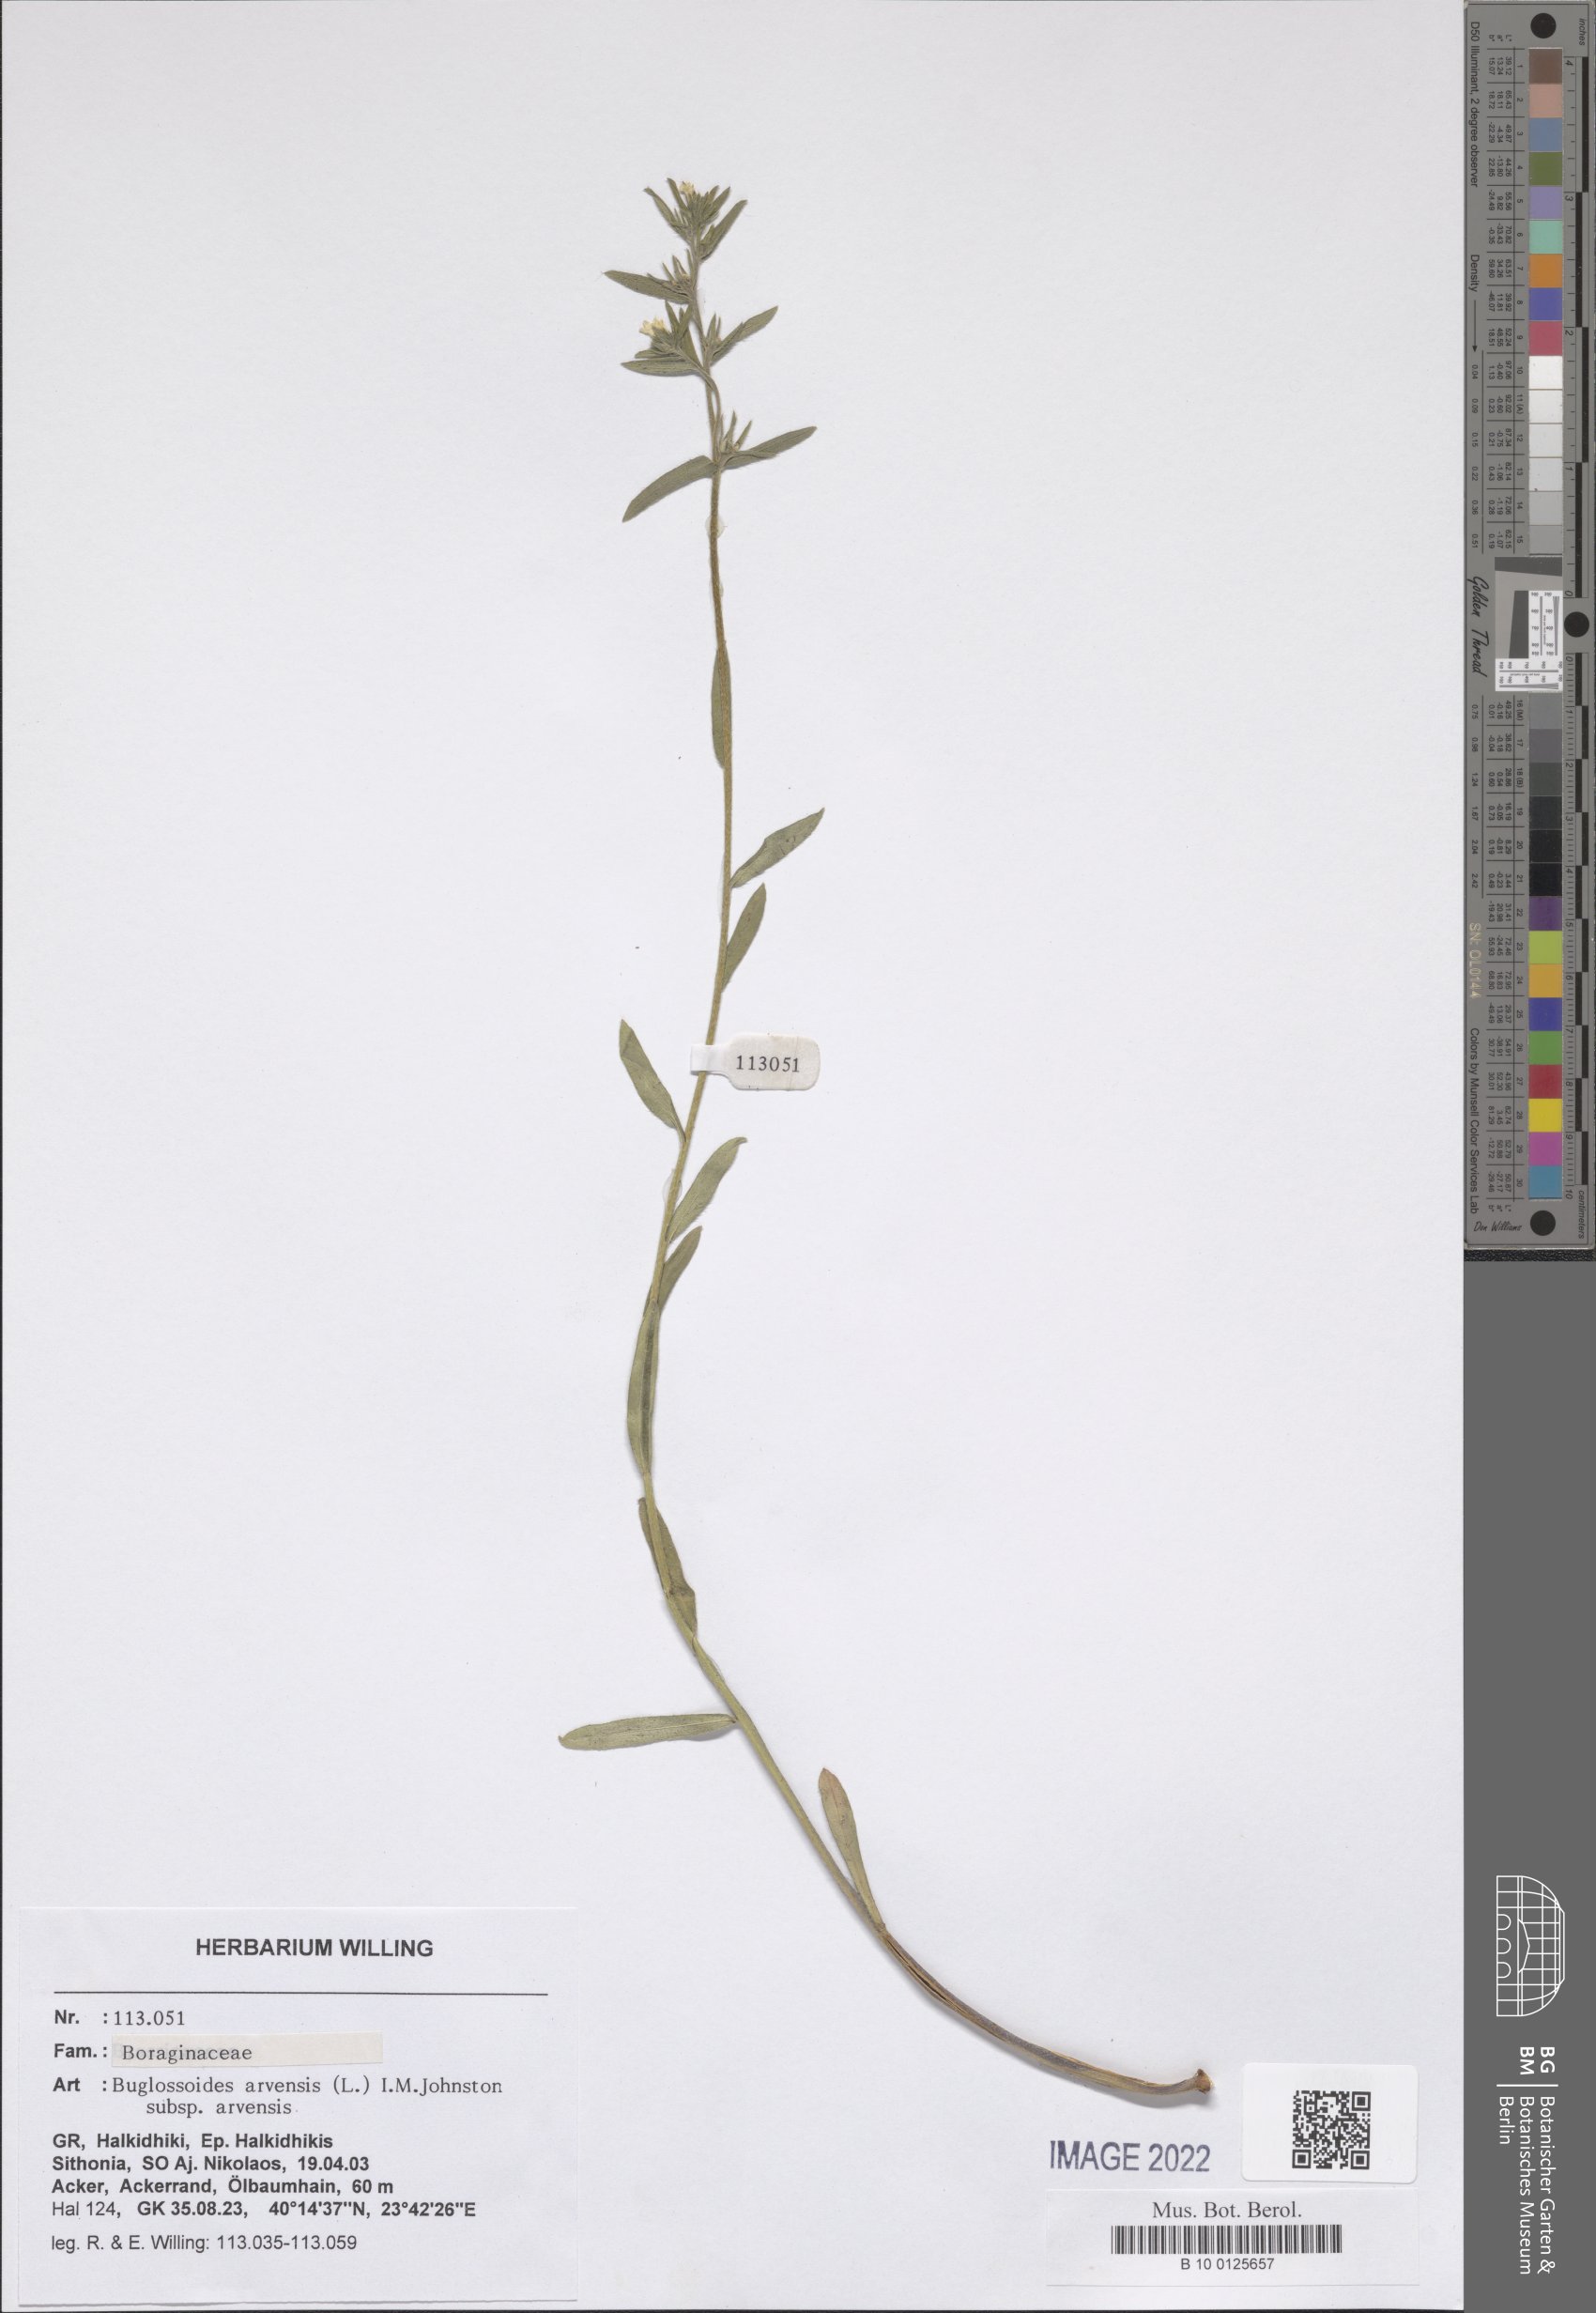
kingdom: Plantae
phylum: Tracheophyta
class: Magnoliopsida
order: Boraginales
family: Boraginaceae
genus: Buglossoides
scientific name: Buglossoides arvensis
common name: Corn gromwell
